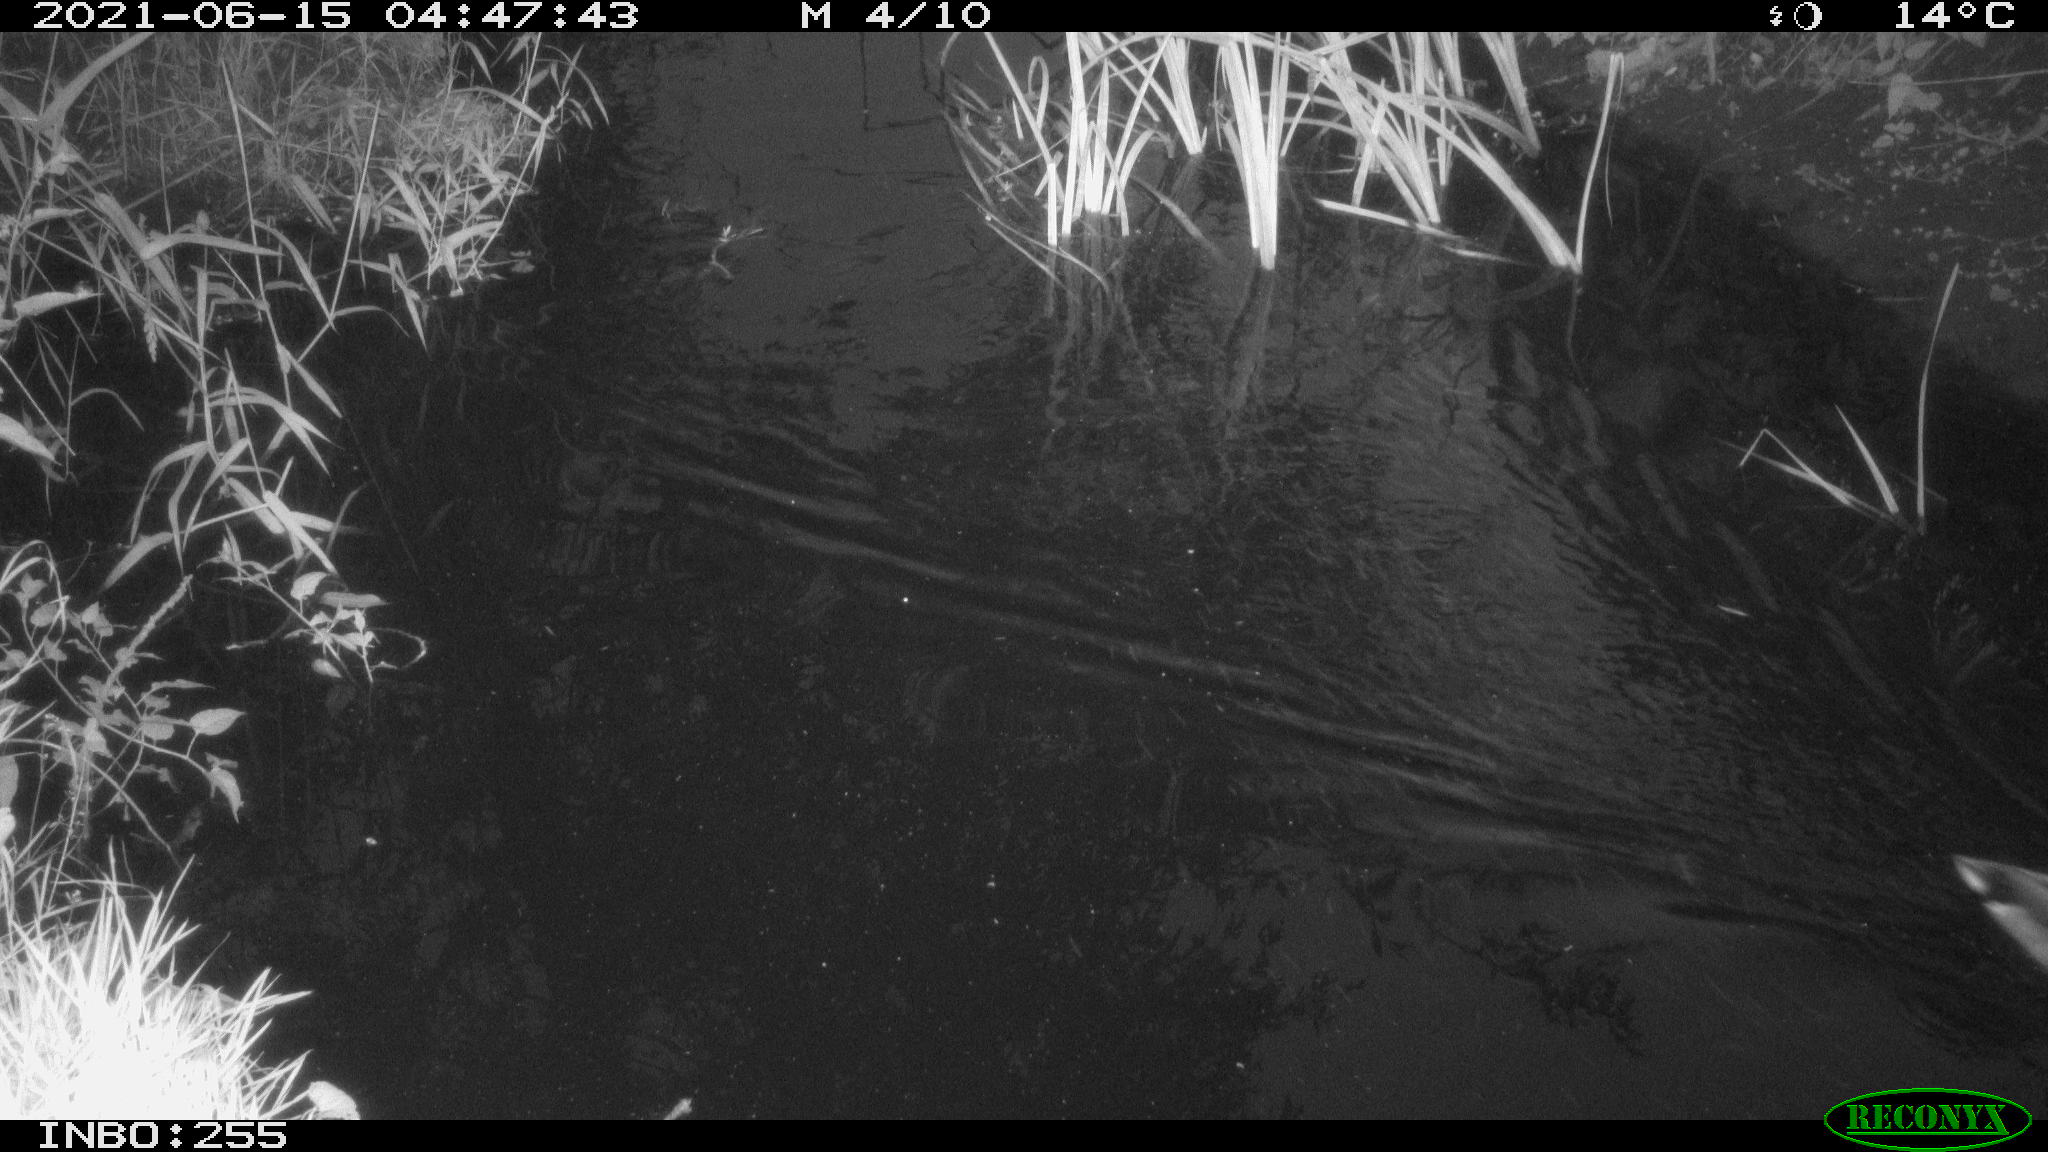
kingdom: Animalia
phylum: Chordata
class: Aves
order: Anseriformes
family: Anatidae
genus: Anas
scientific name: Anas
